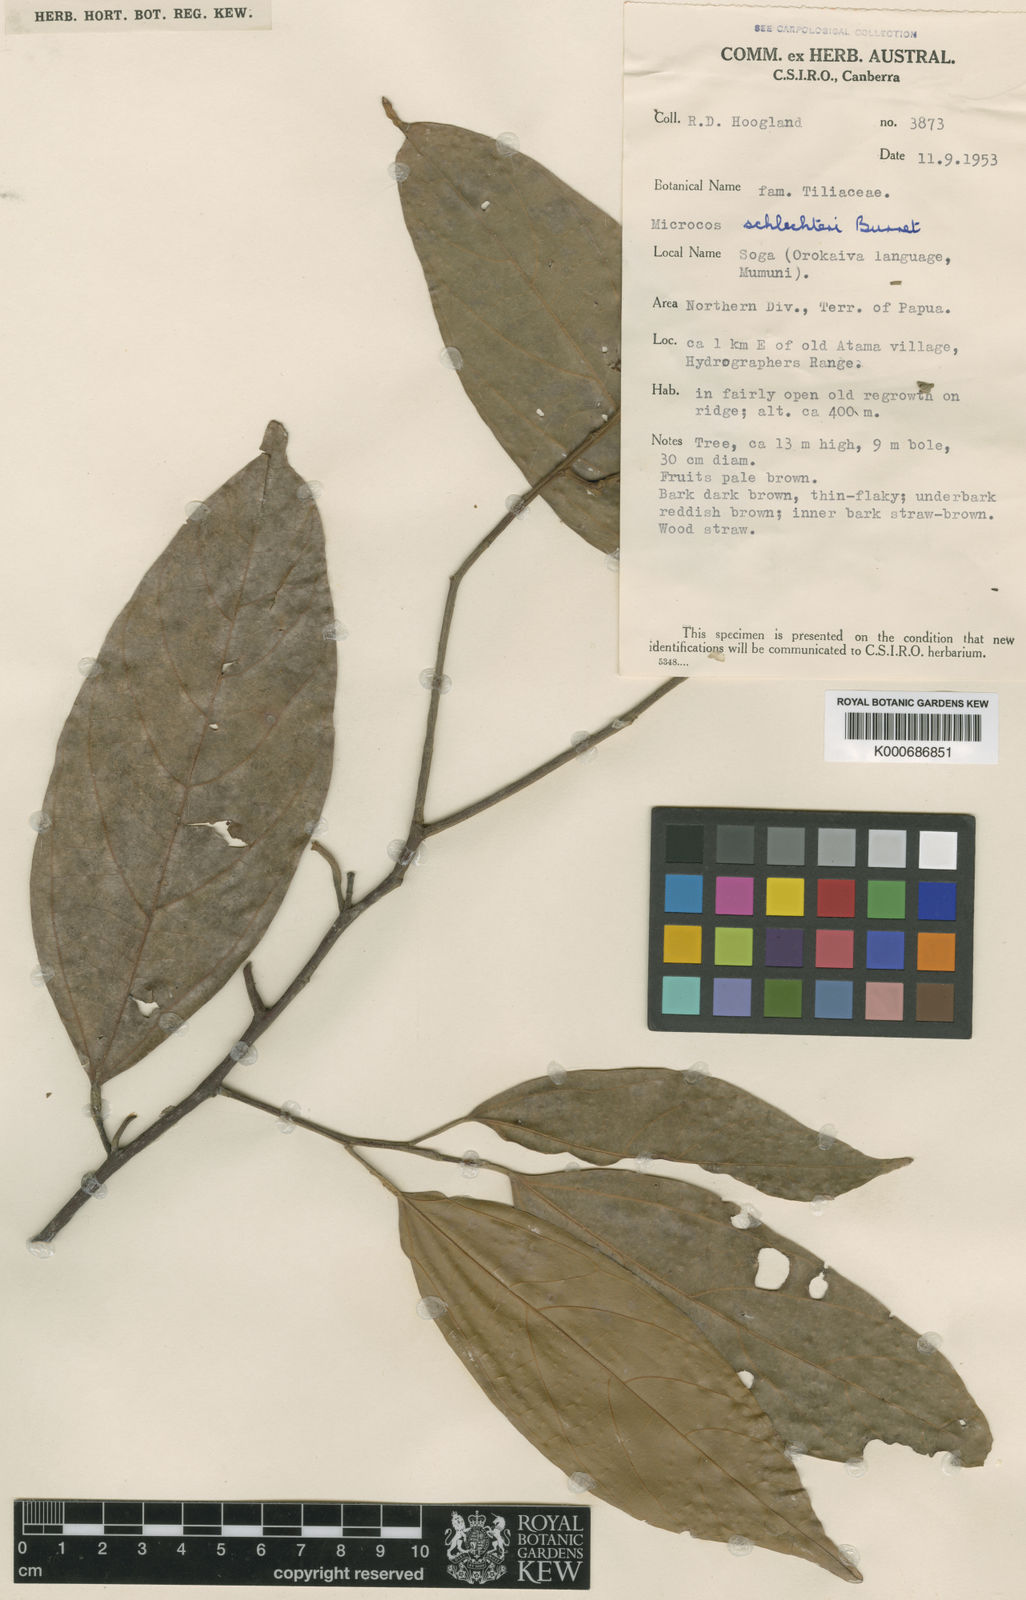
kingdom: Plantae
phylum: Tracheophyta
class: Magnoliopsida
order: Malvales
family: Malvaceae
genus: Microcos
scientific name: Microcos schlechteri
